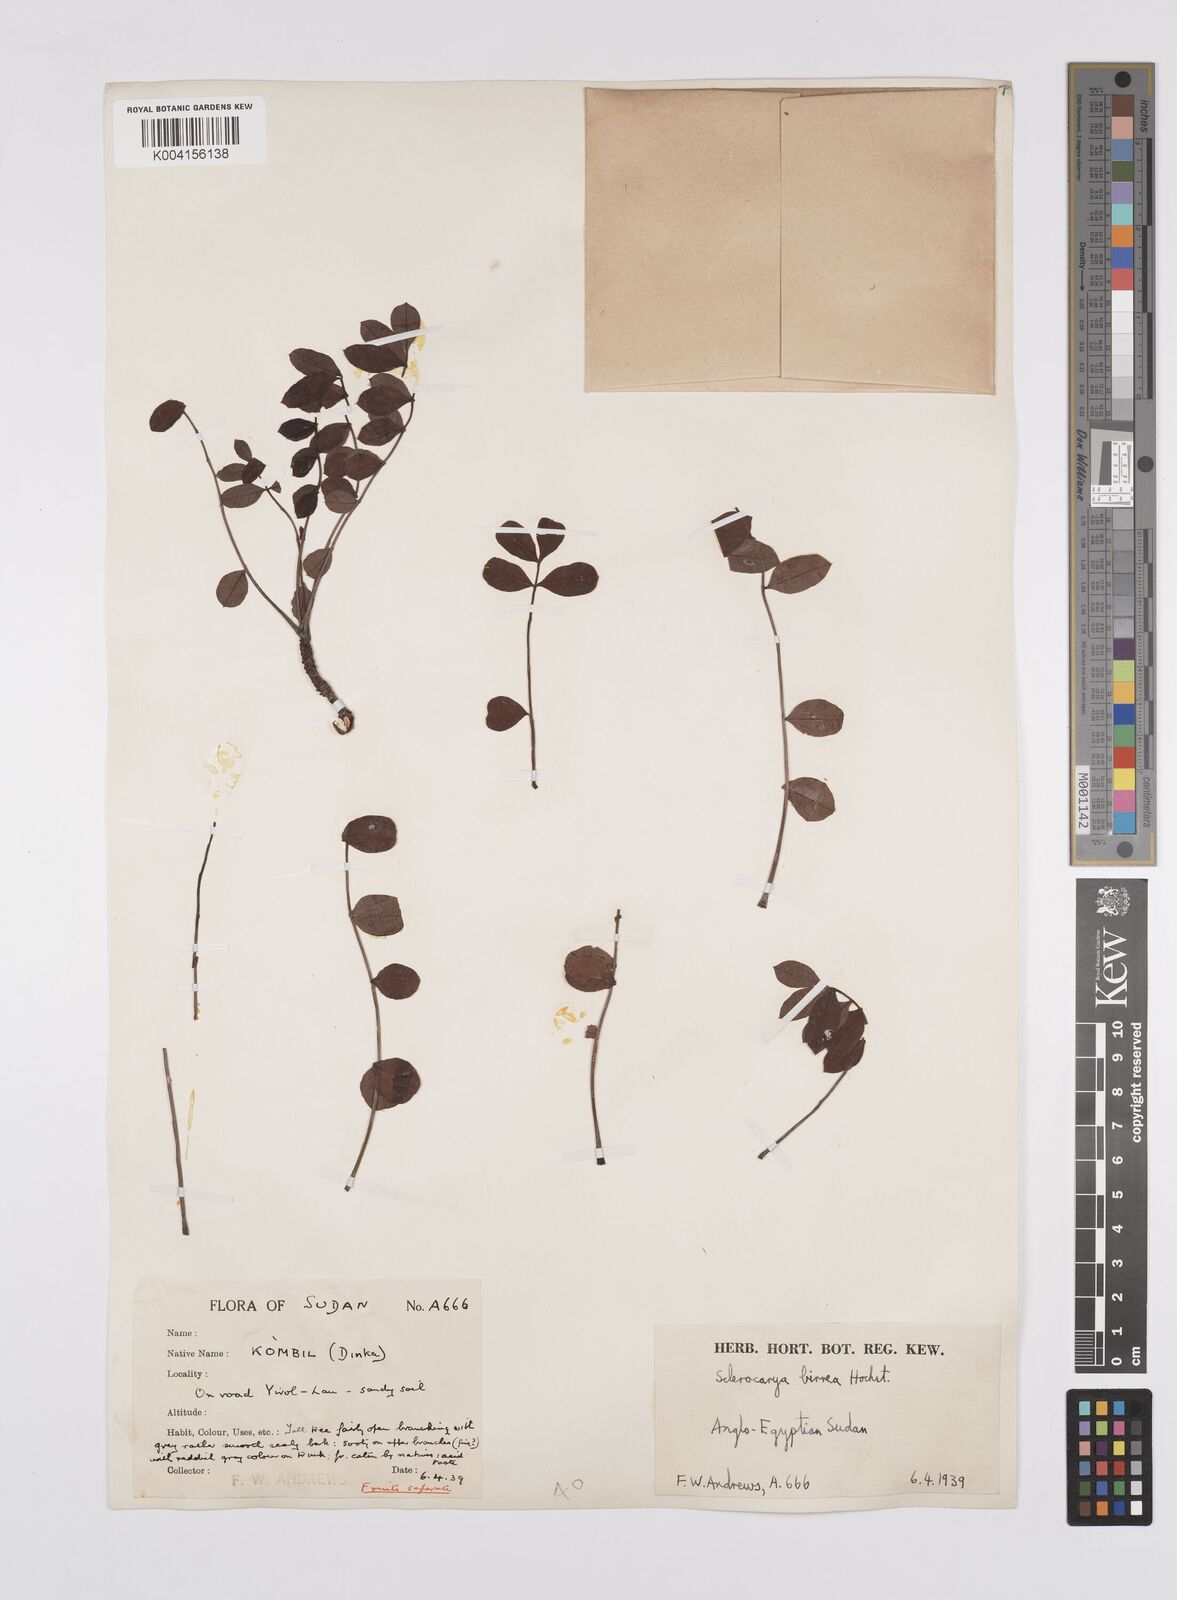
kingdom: Plantae
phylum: Tracheophyta
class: Magnoliopsida
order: Sapindales
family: Anacardiaceae
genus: Sclerocarya
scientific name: Sclerocarya birrea
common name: Marula
